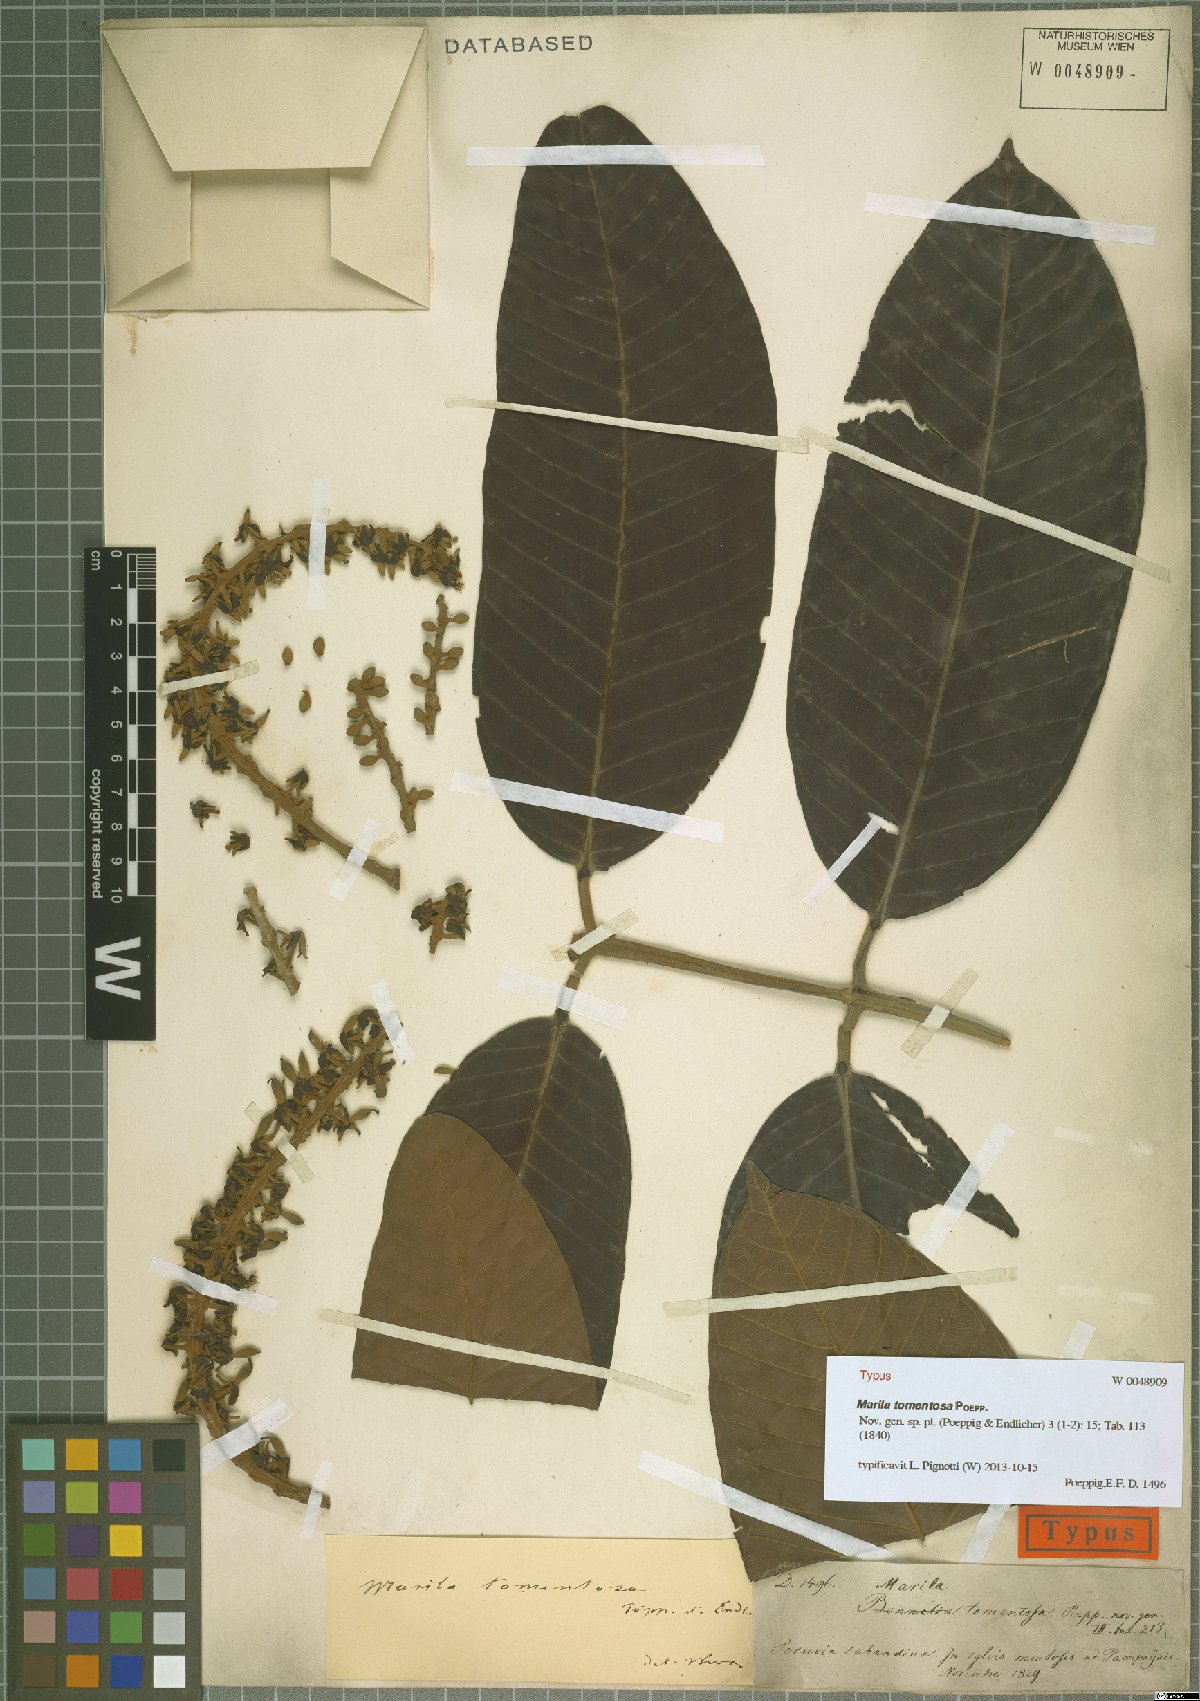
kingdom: Plantae
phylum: Tracheophyta
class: Magnoliopsida
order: Malpighiales
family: Calophyllaceae
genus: Marila
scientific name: Marila tomentosa
